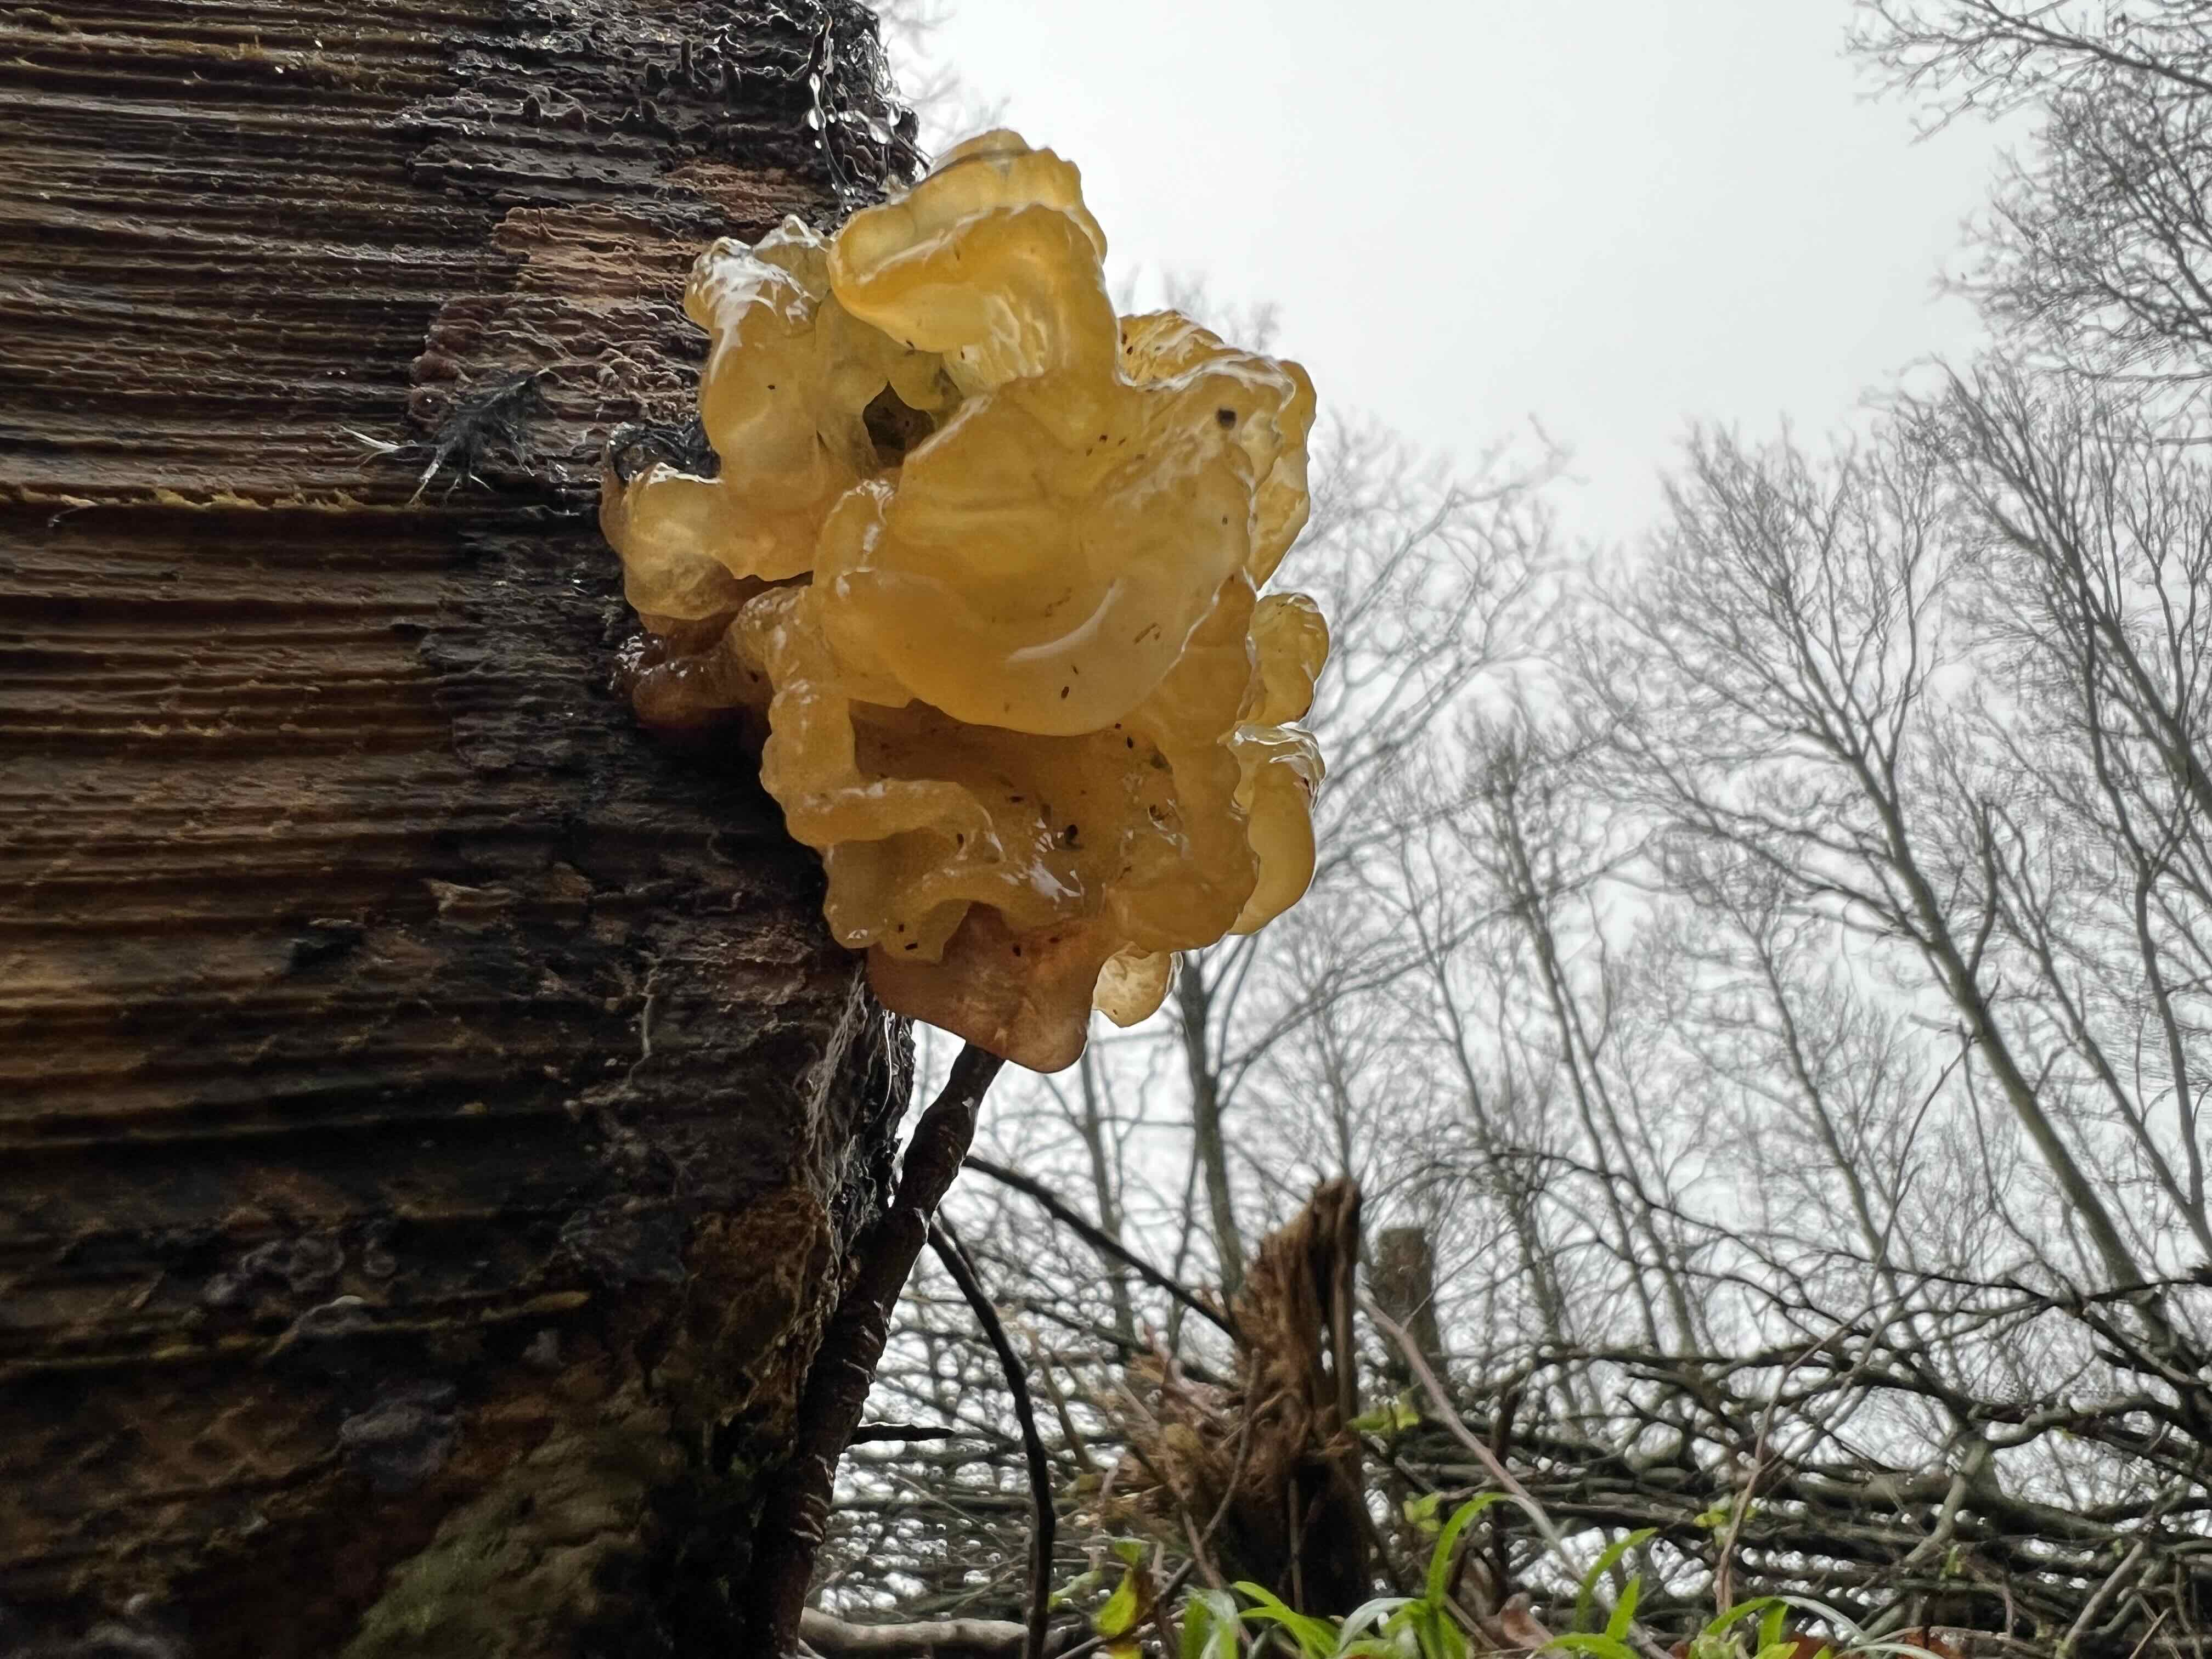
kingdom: Fungi
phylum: Basidiomycota
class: Tremellomycetes
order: Tremellales
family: Tremellaceae
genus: Tremella
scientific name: Tremella mesenterica
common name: gul bævresvamp
